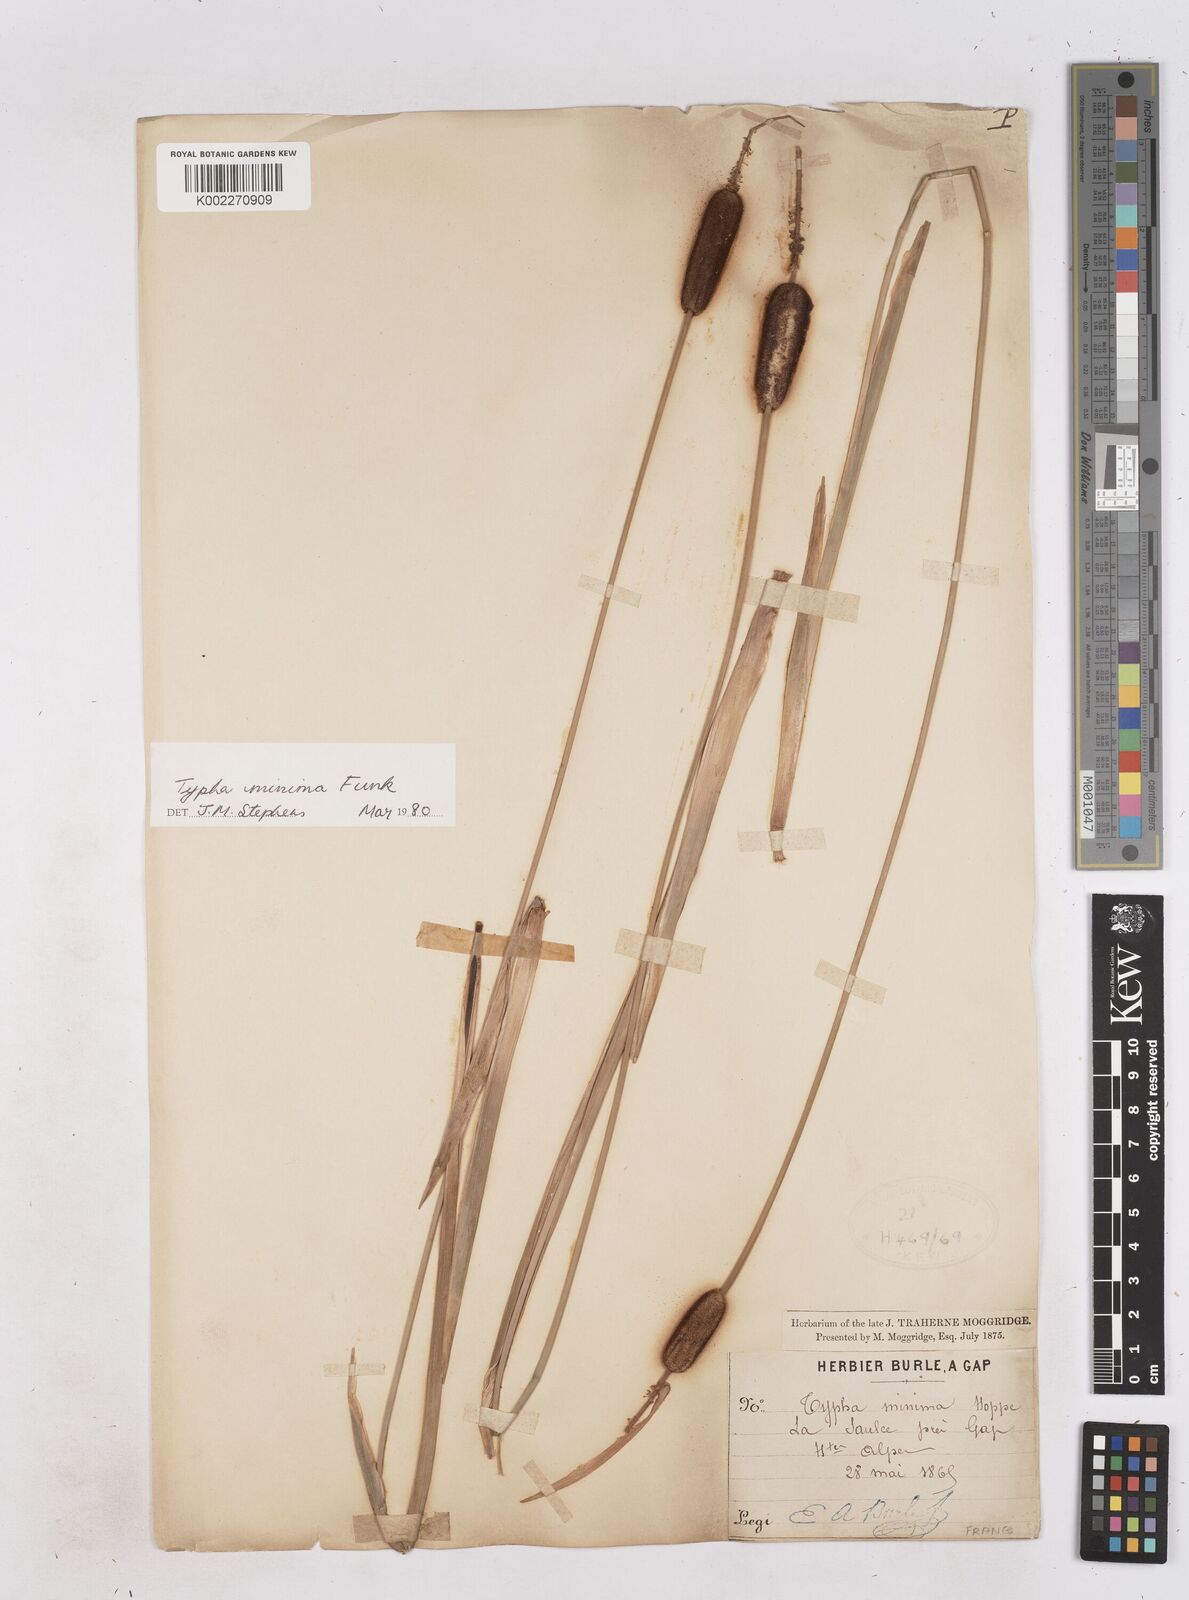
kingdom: Plantae
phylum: Tracheophyta
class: Liliopsida
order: Poales
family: Typhaceae
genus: Typha
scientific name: Typha
